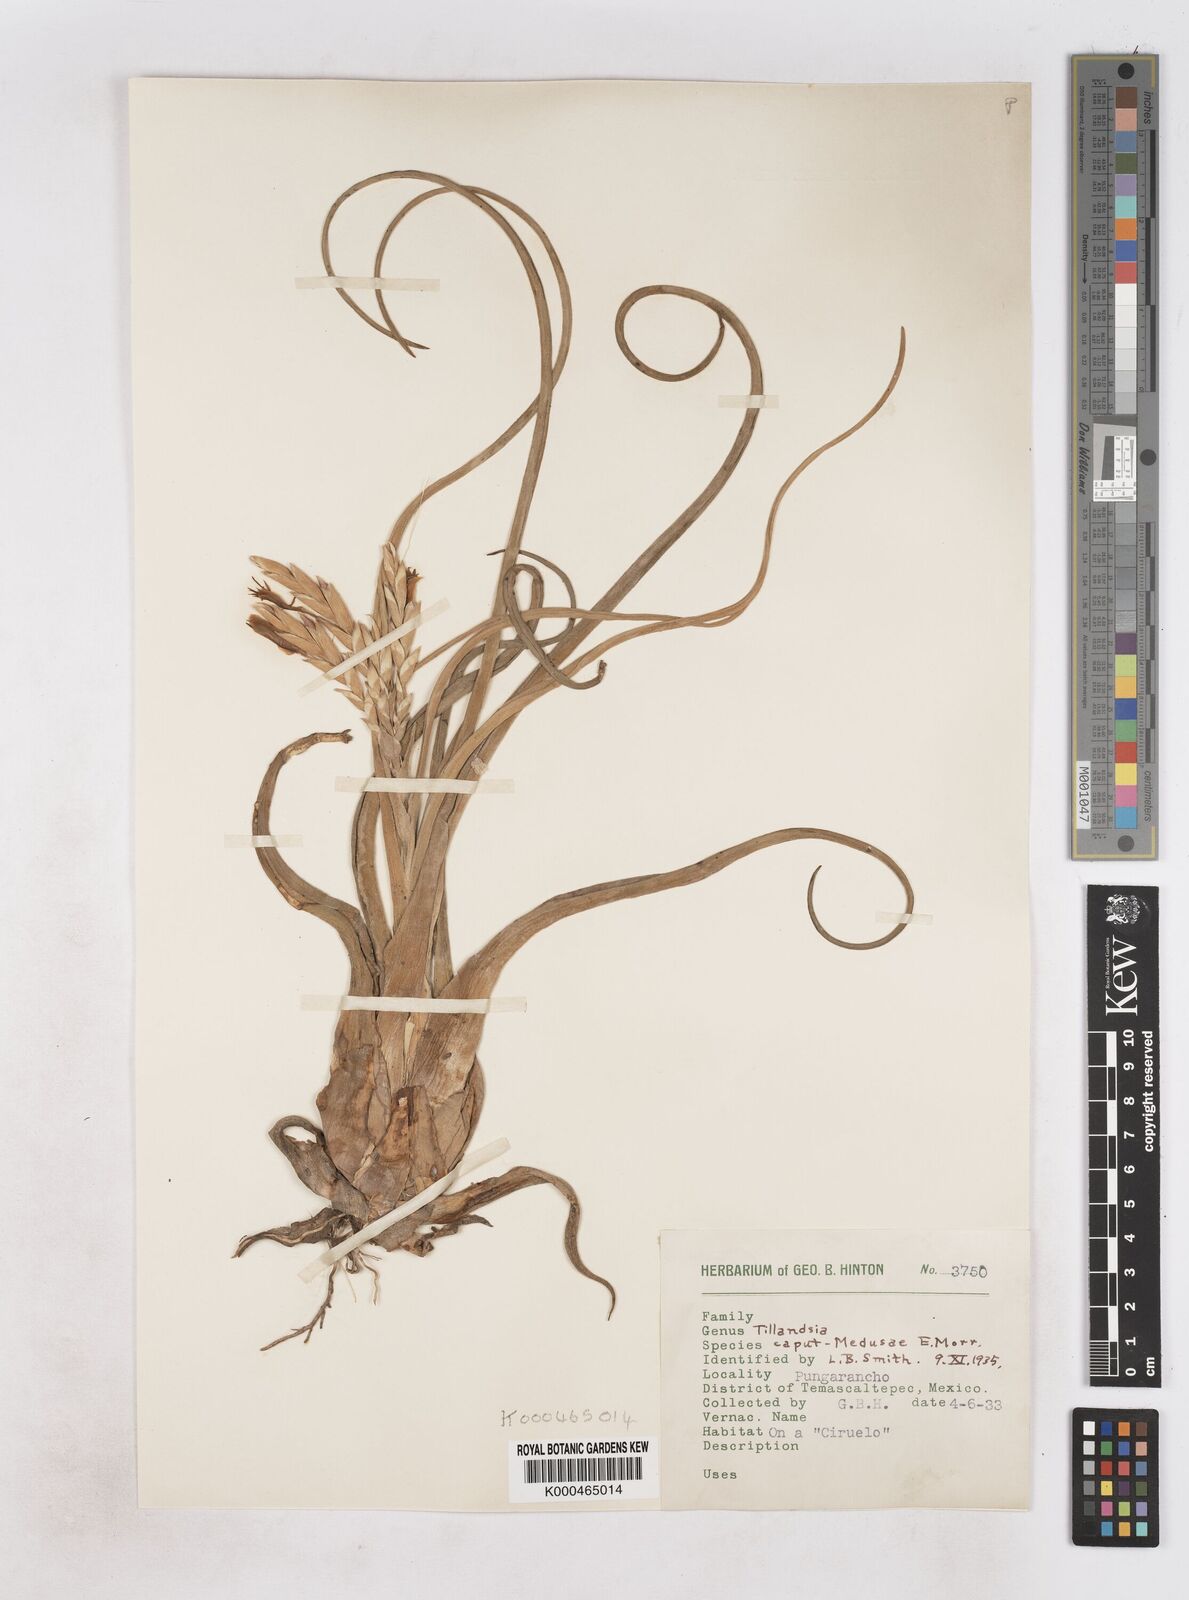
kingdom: Plantae
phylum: Tracheophyta
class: Liliopsida
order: Poales
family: Bromeliaceae
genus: Tillandsia
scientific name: Tillandsia caput-medusae
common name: Octopus plant
